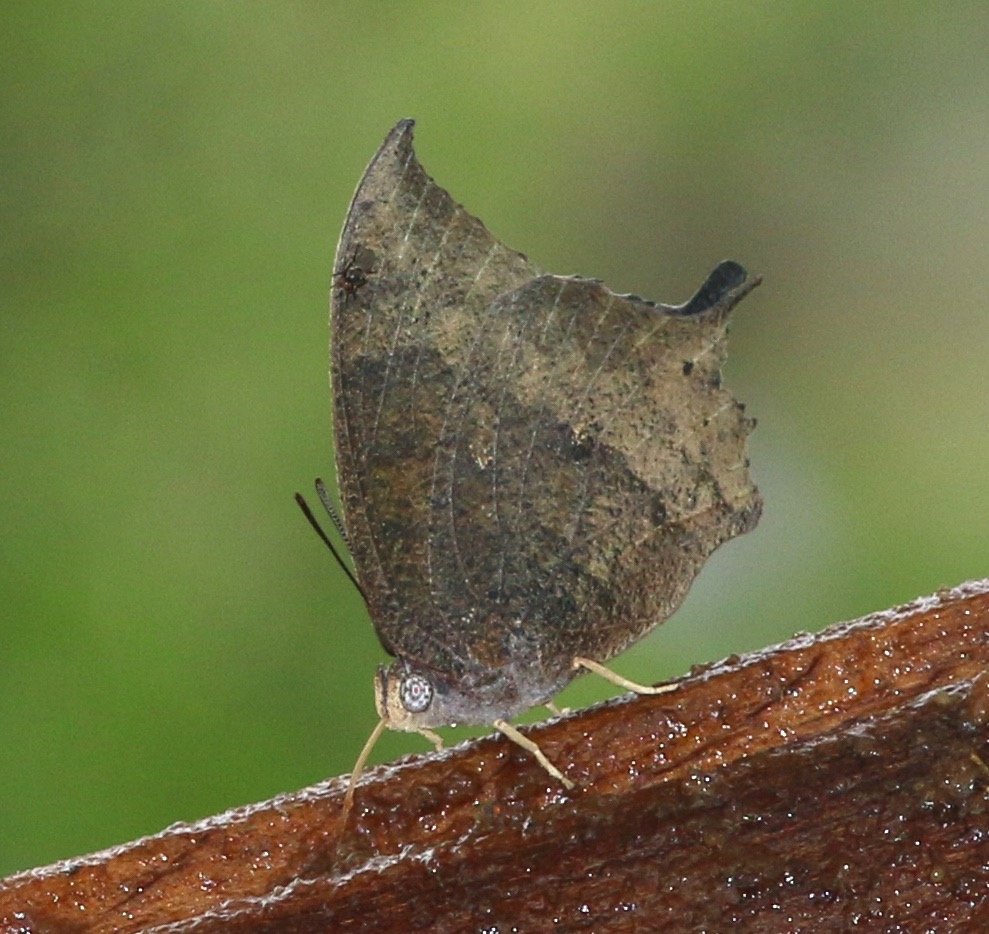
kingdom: Animalia
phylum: Arthropoda
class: Insecta
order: Lepidoptera
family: Nymphalidae
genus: Anaea
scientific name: Anaea aidea
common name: Tropical Leafwing
